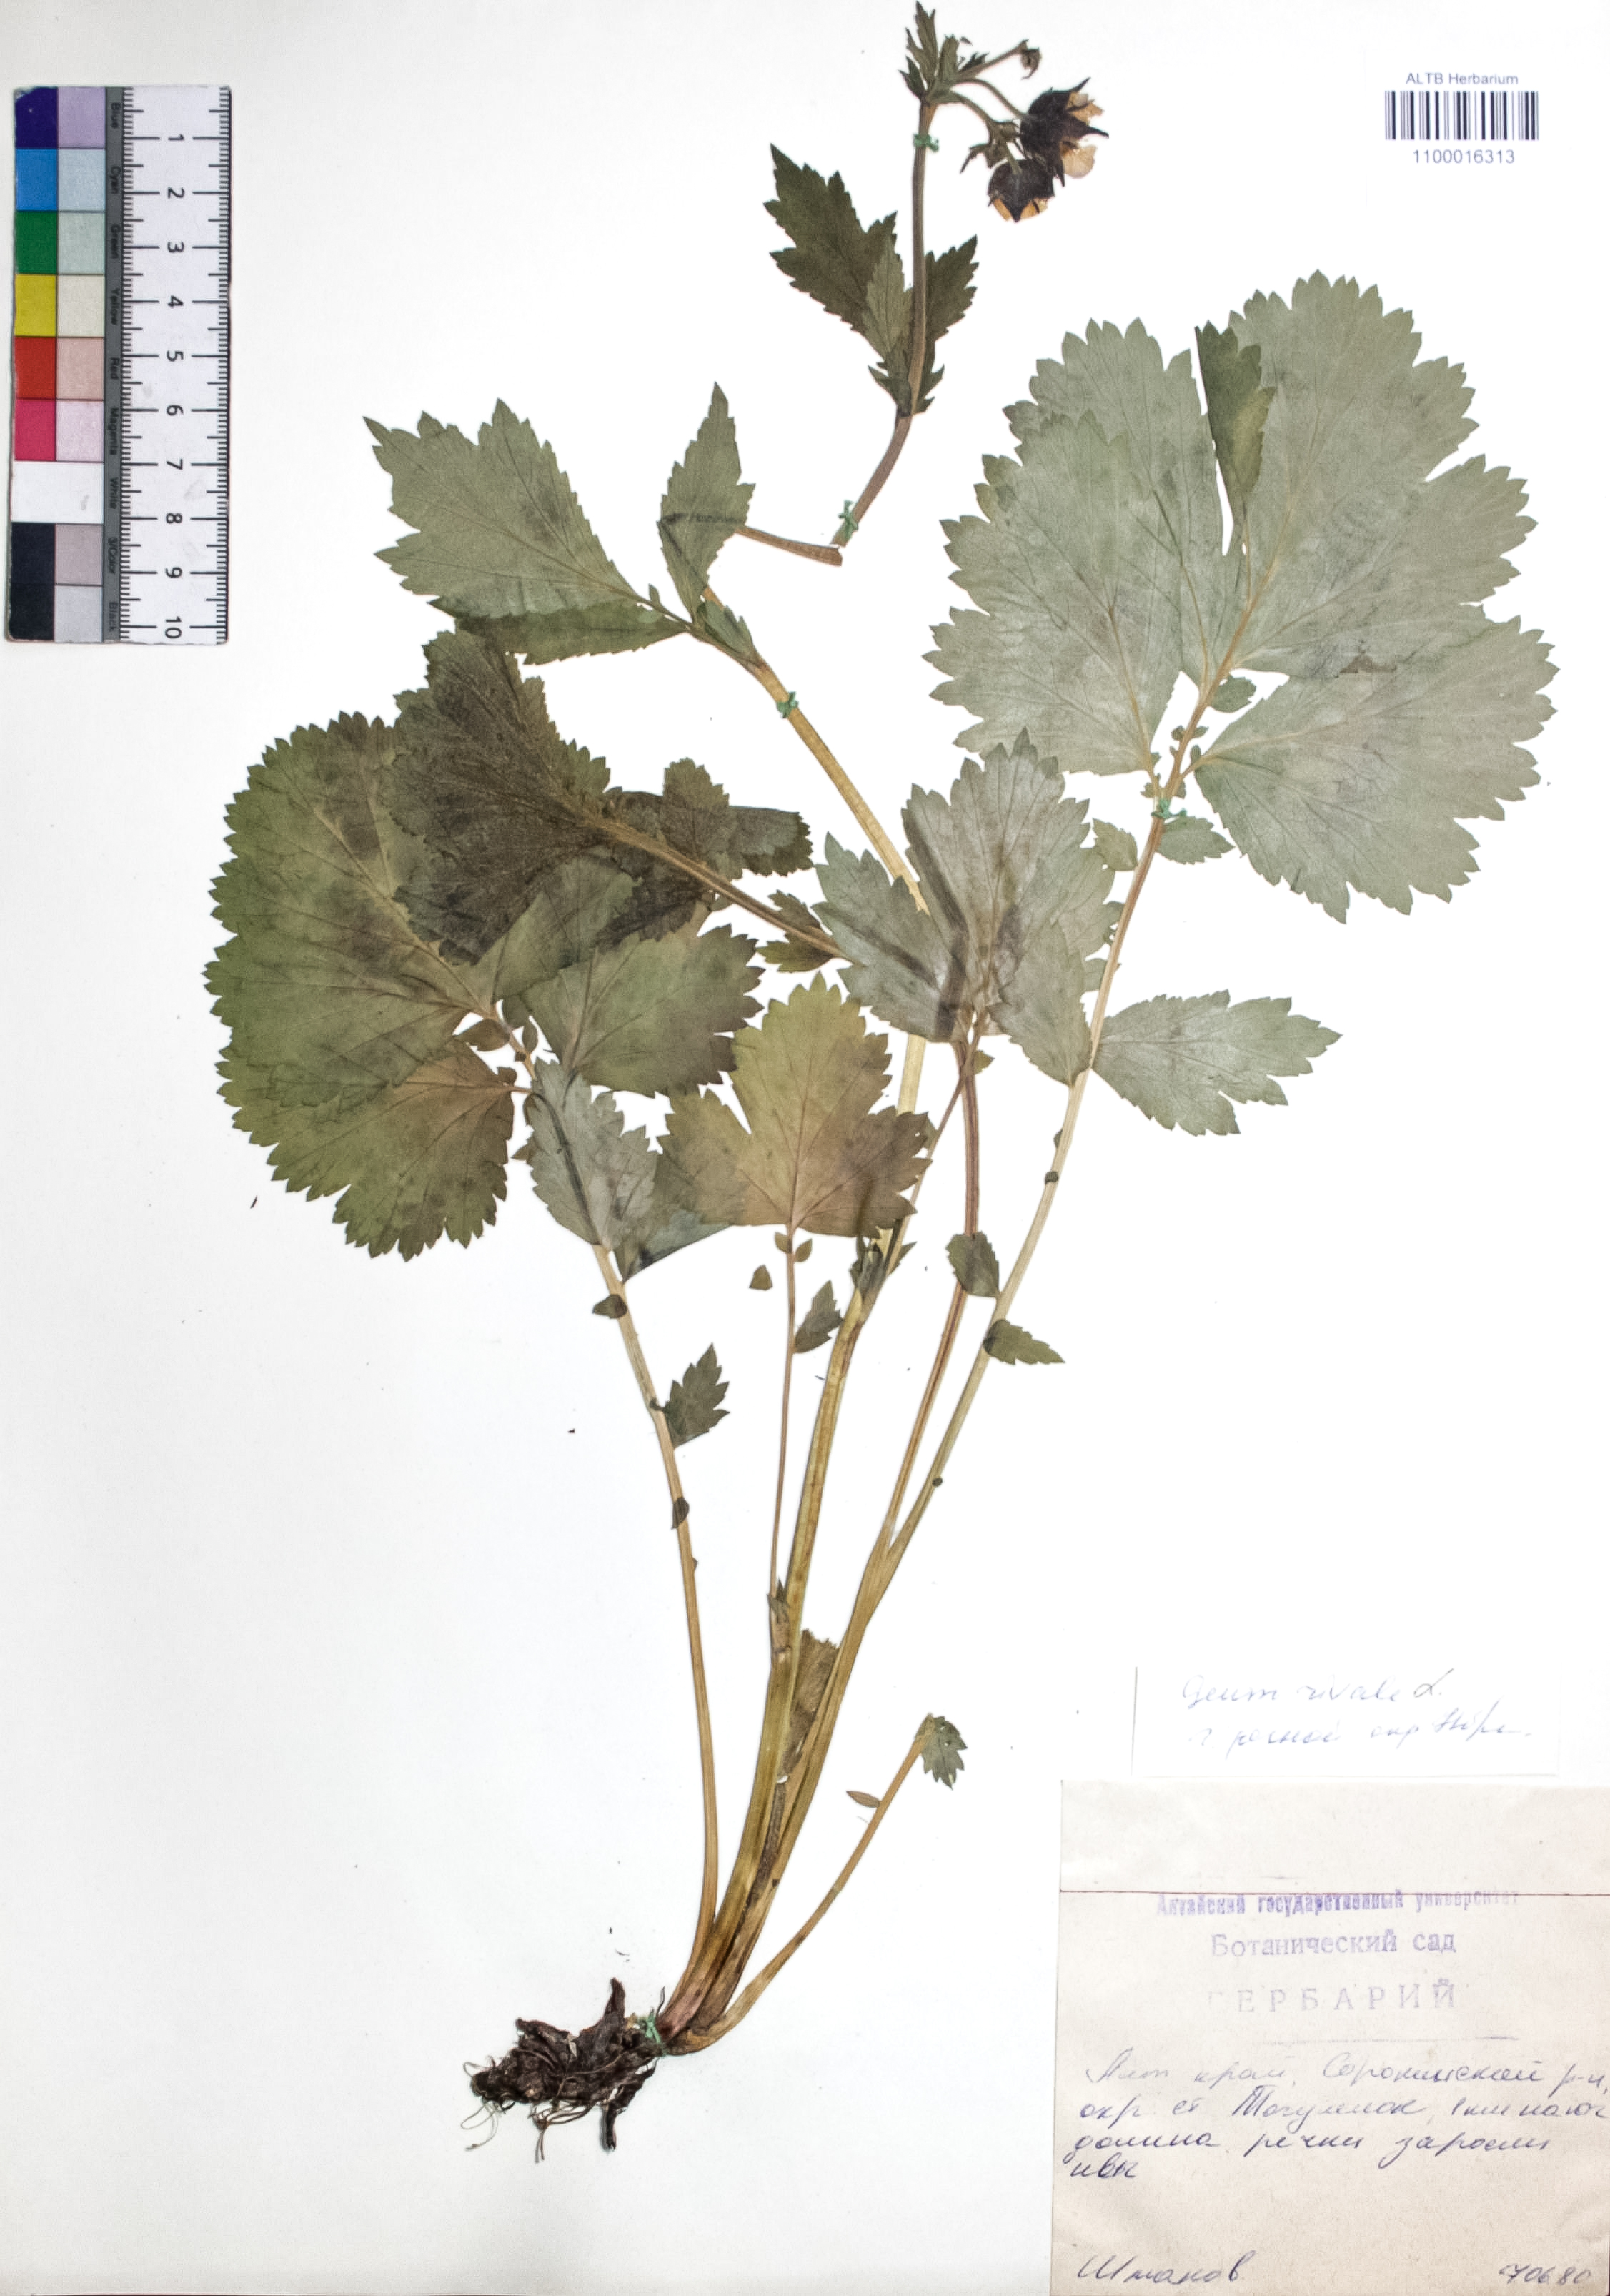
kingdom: Plantae
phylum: Tracheophyta
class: Magnoliopsida
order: Rosales
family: Rosaceae
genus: Geum
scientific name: Geum rivale
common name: Water avens
